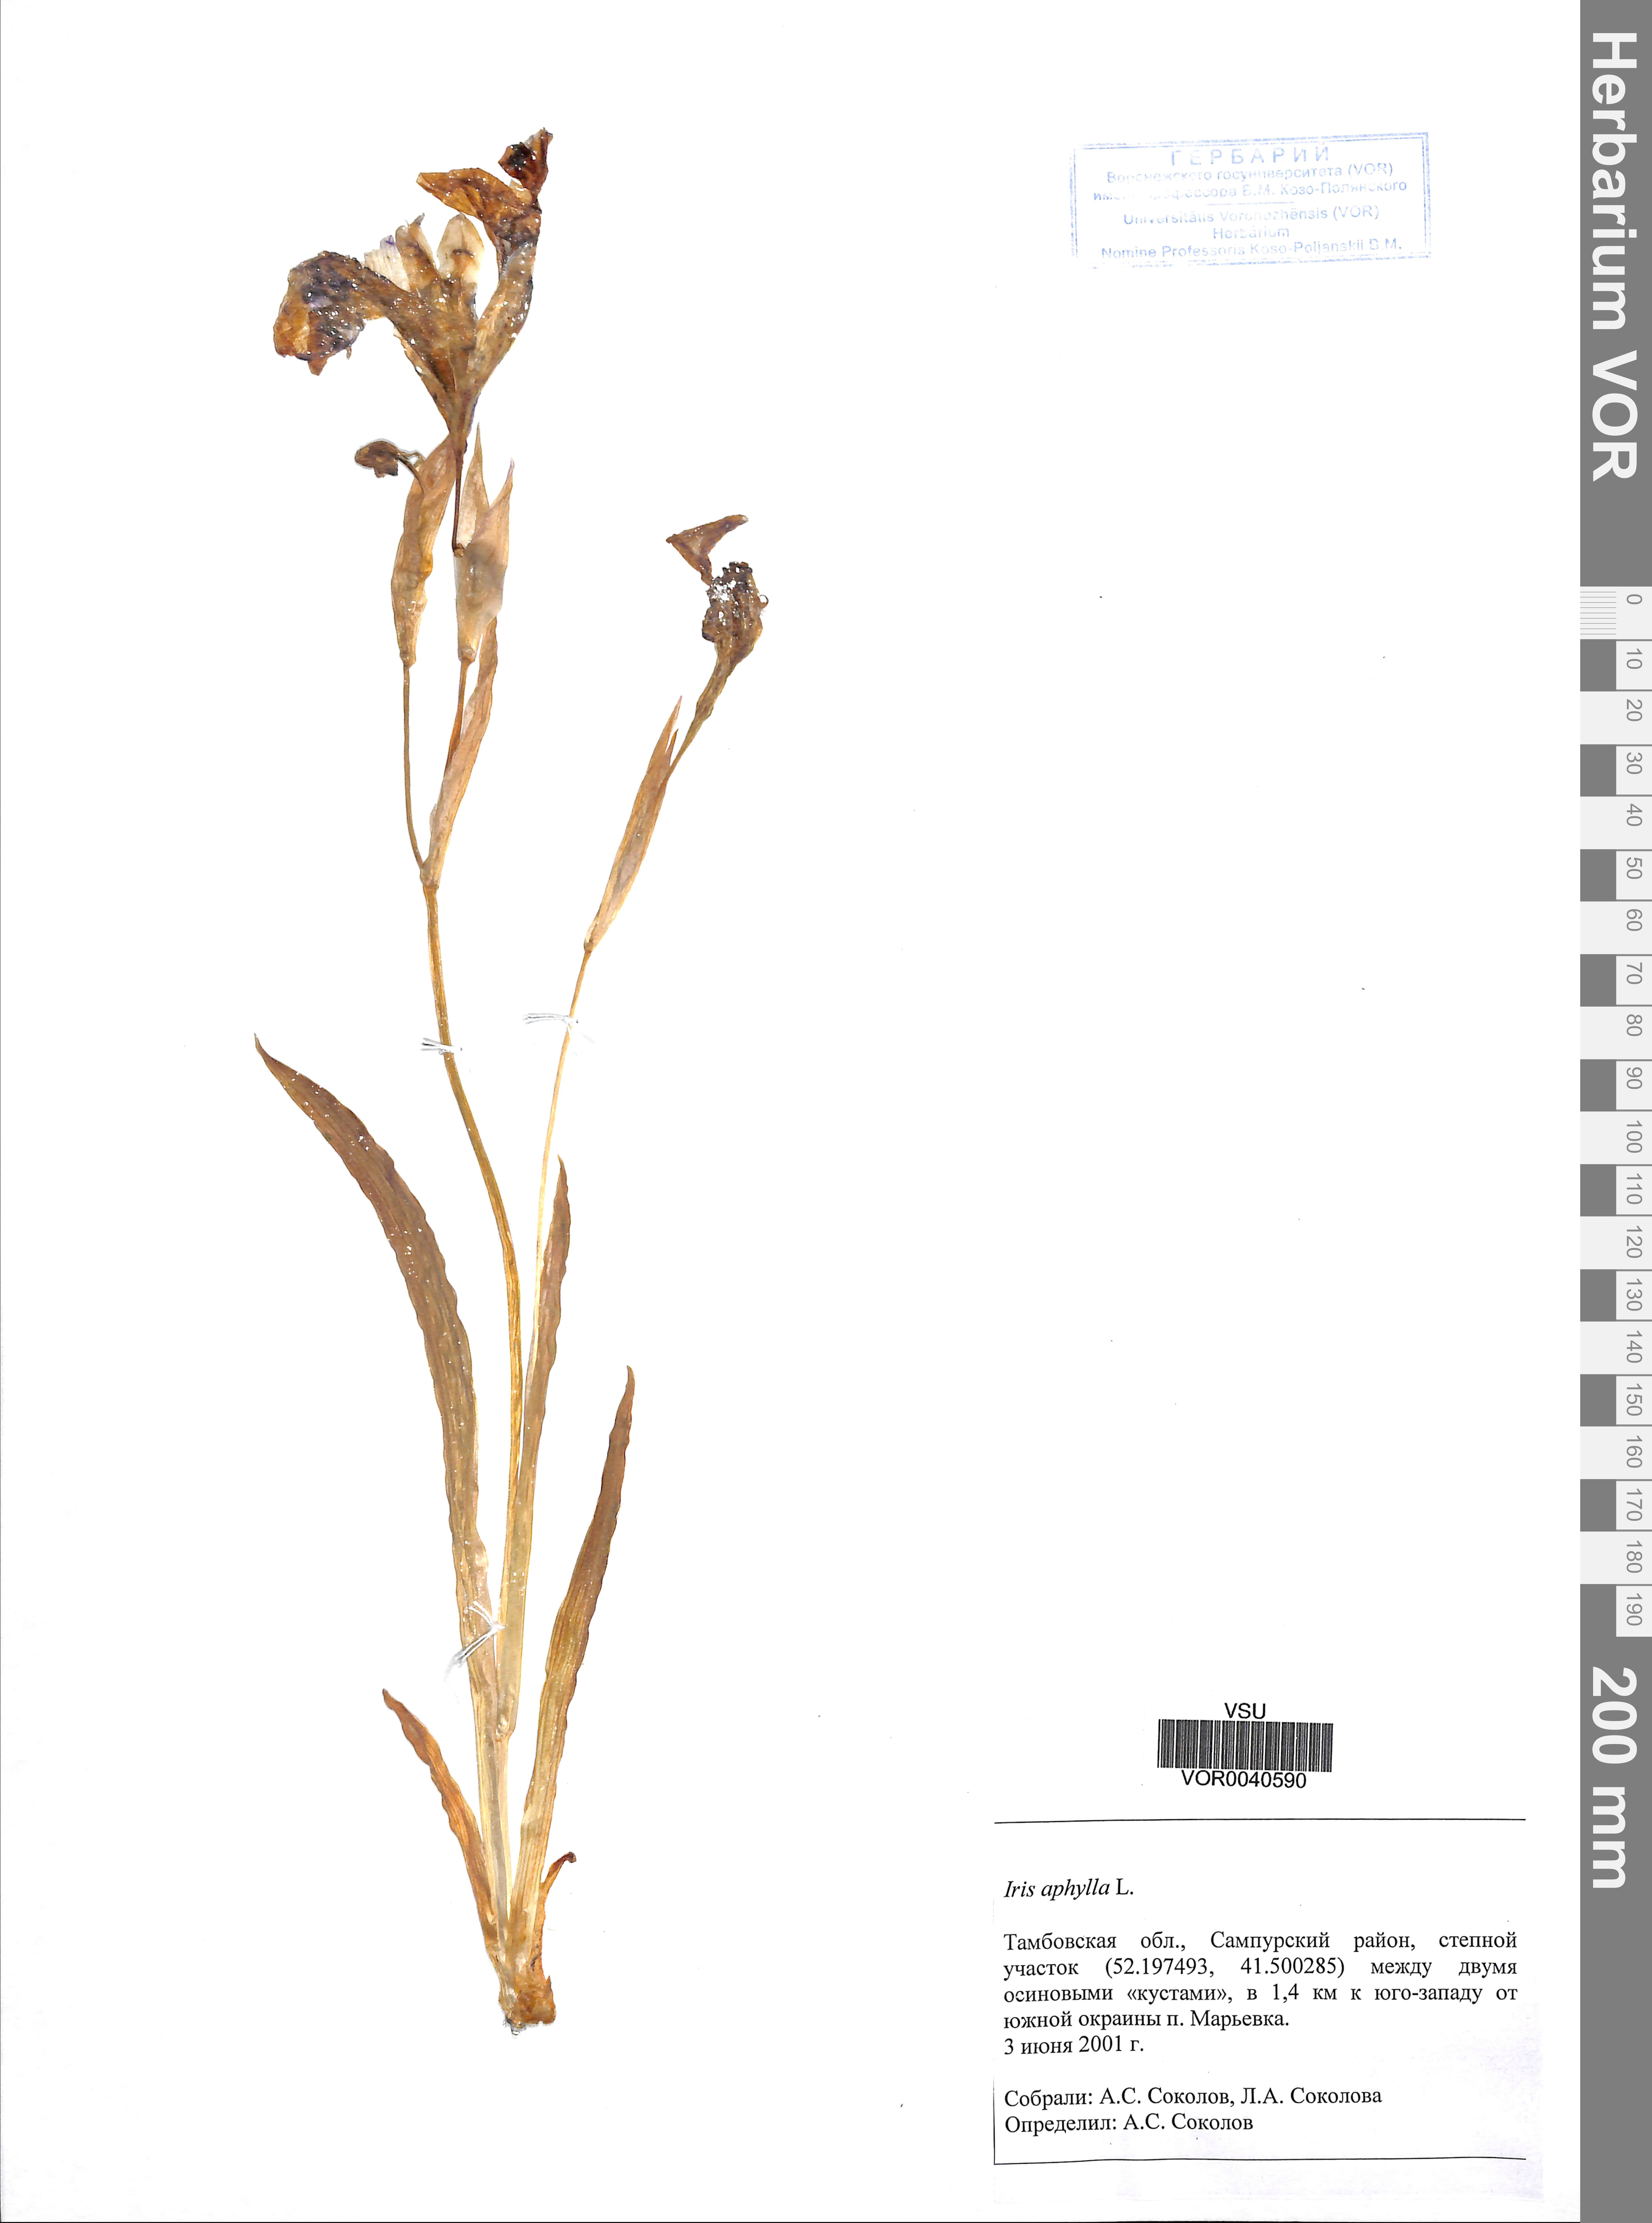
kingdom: Plantae
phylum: Tracheophyta
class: Liliopsida
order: Asparagales
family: Iridaceae
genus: Iris
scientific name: Iris aphylla
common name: Stool iris
